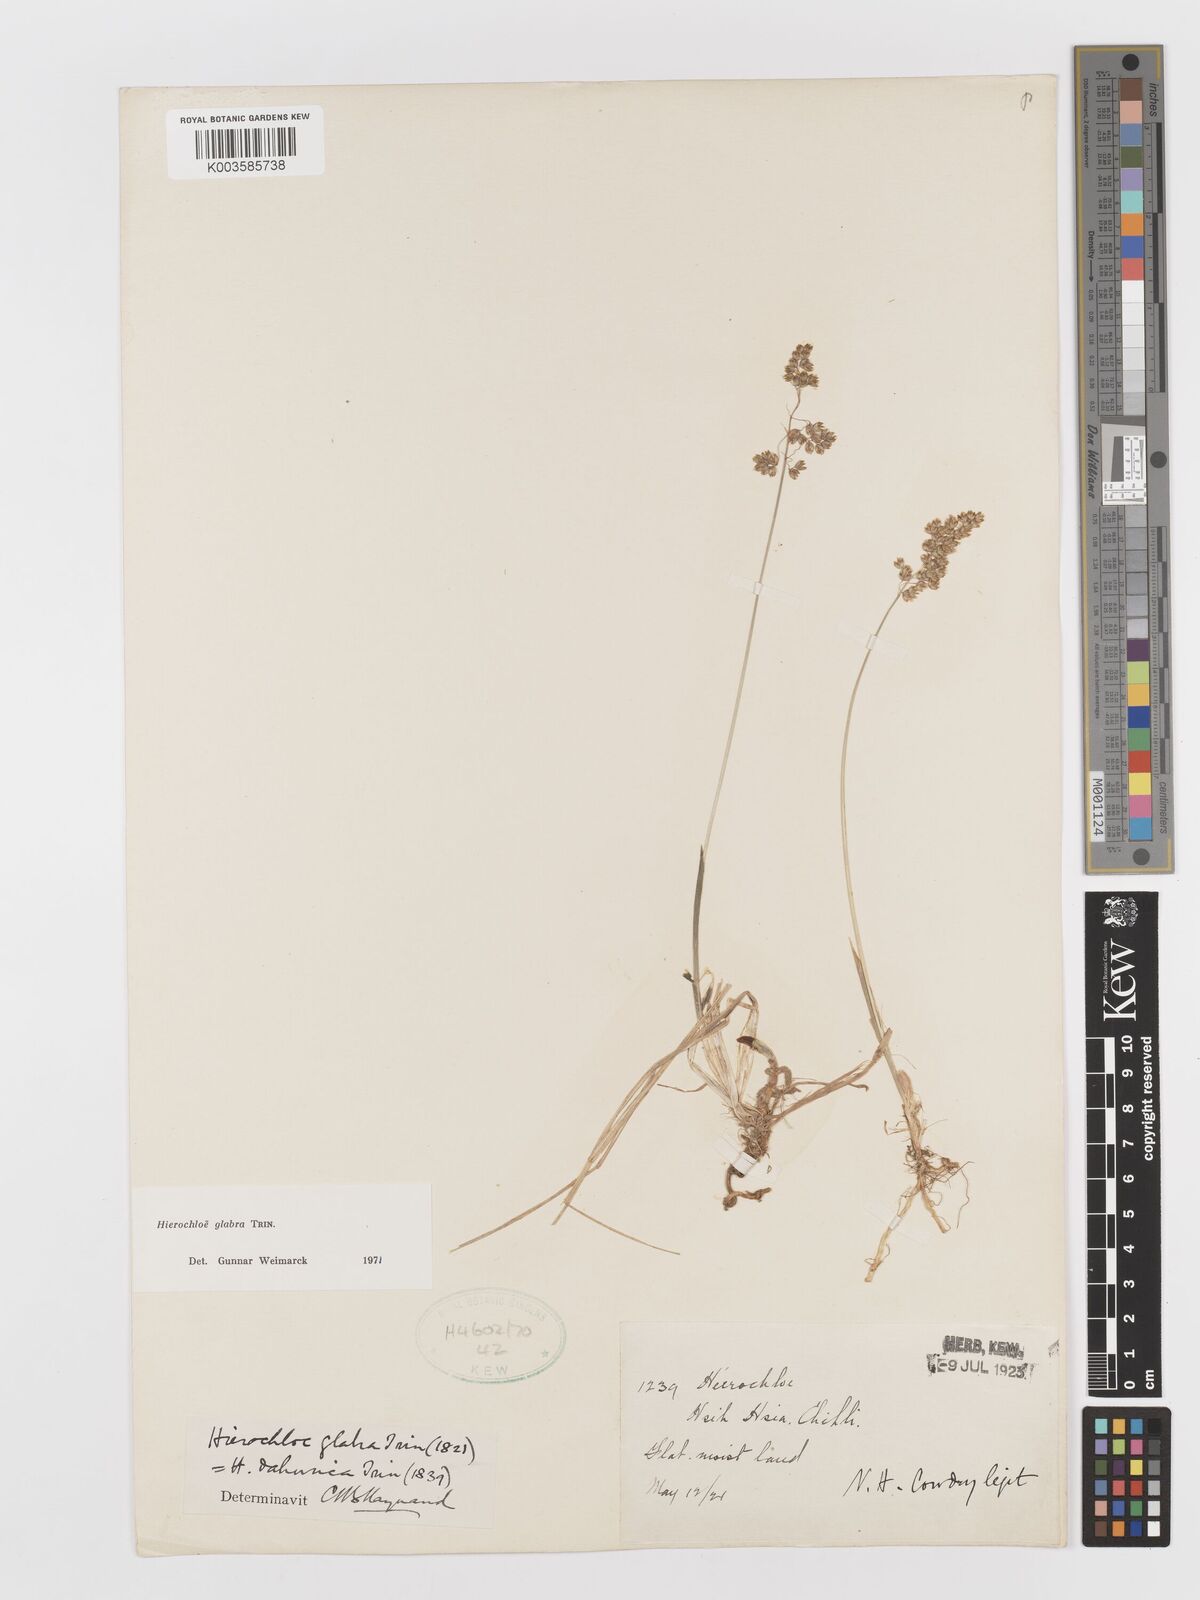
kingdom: Plantae
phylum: Tracheophyta
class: Liliopsida
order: Poales
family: Poaceae
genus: Anthoxanthum
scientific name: Anthoxanthum glabrum
